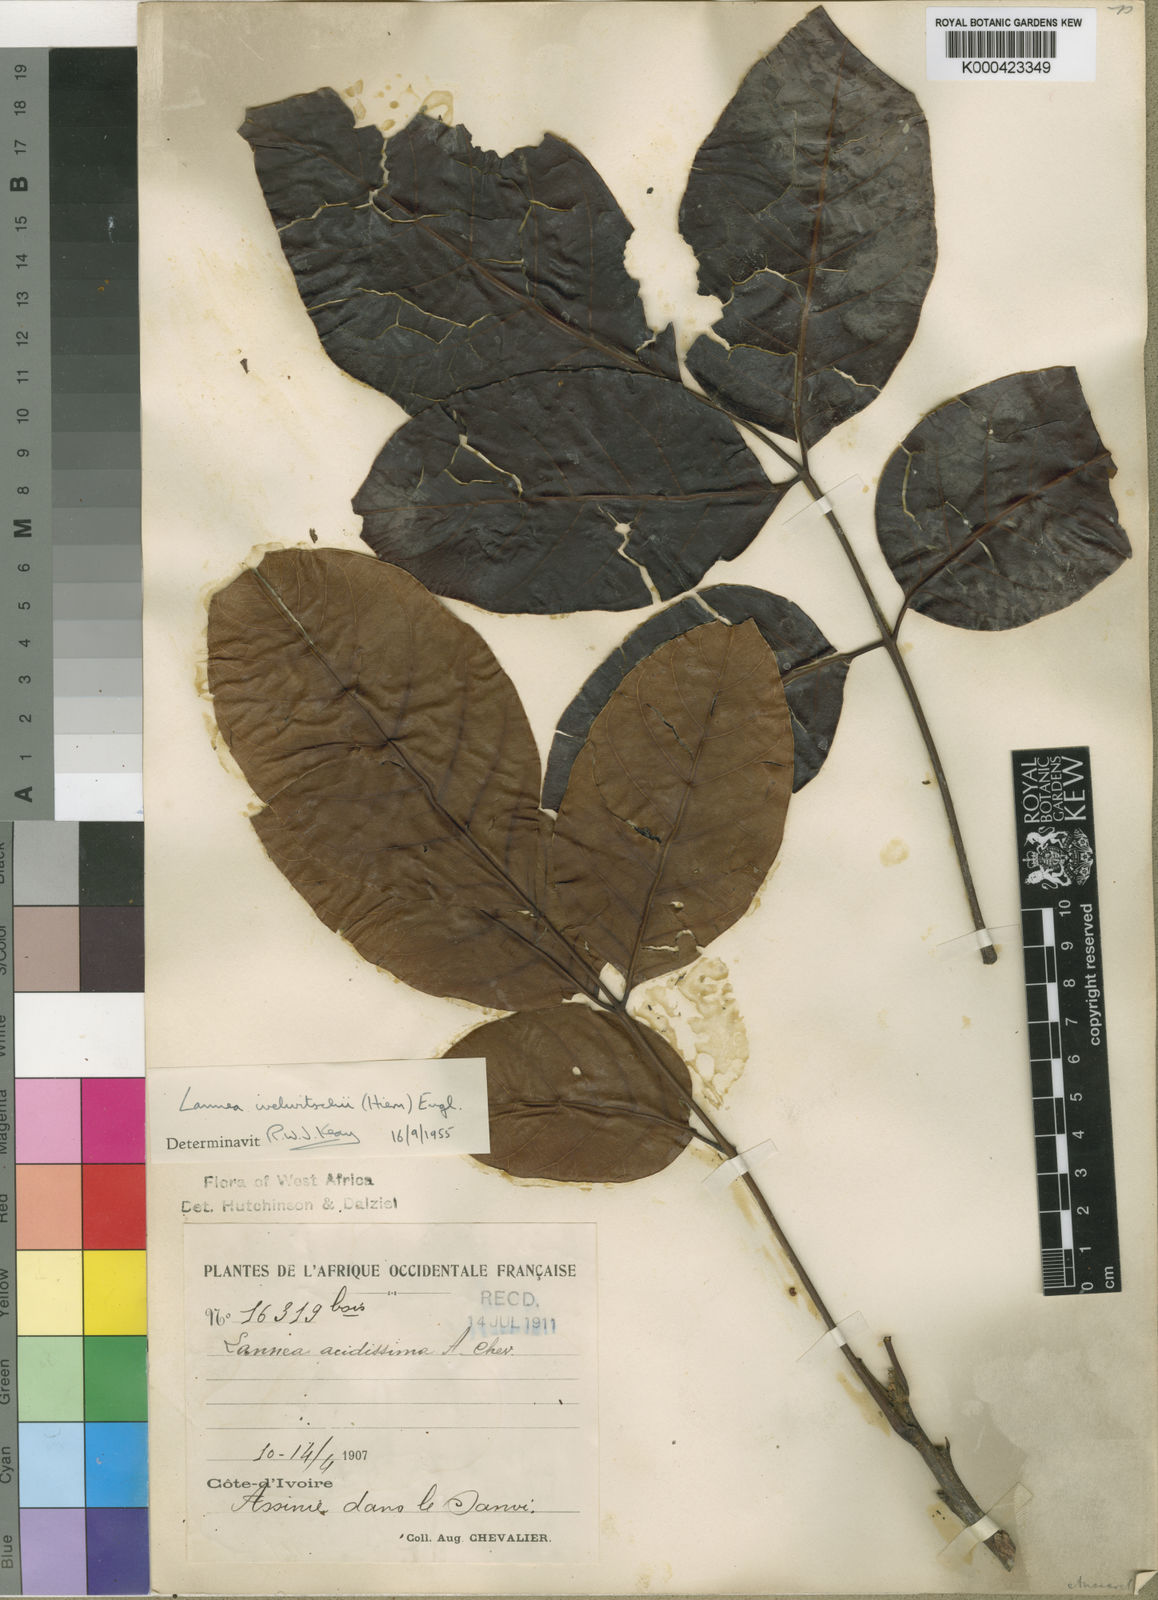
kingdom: Plantae
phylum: Tracheophyta
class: Magnoliopsida
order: Sapindales
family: Anacardiaceae
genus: Lannea
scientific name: Lannea welwitschii
